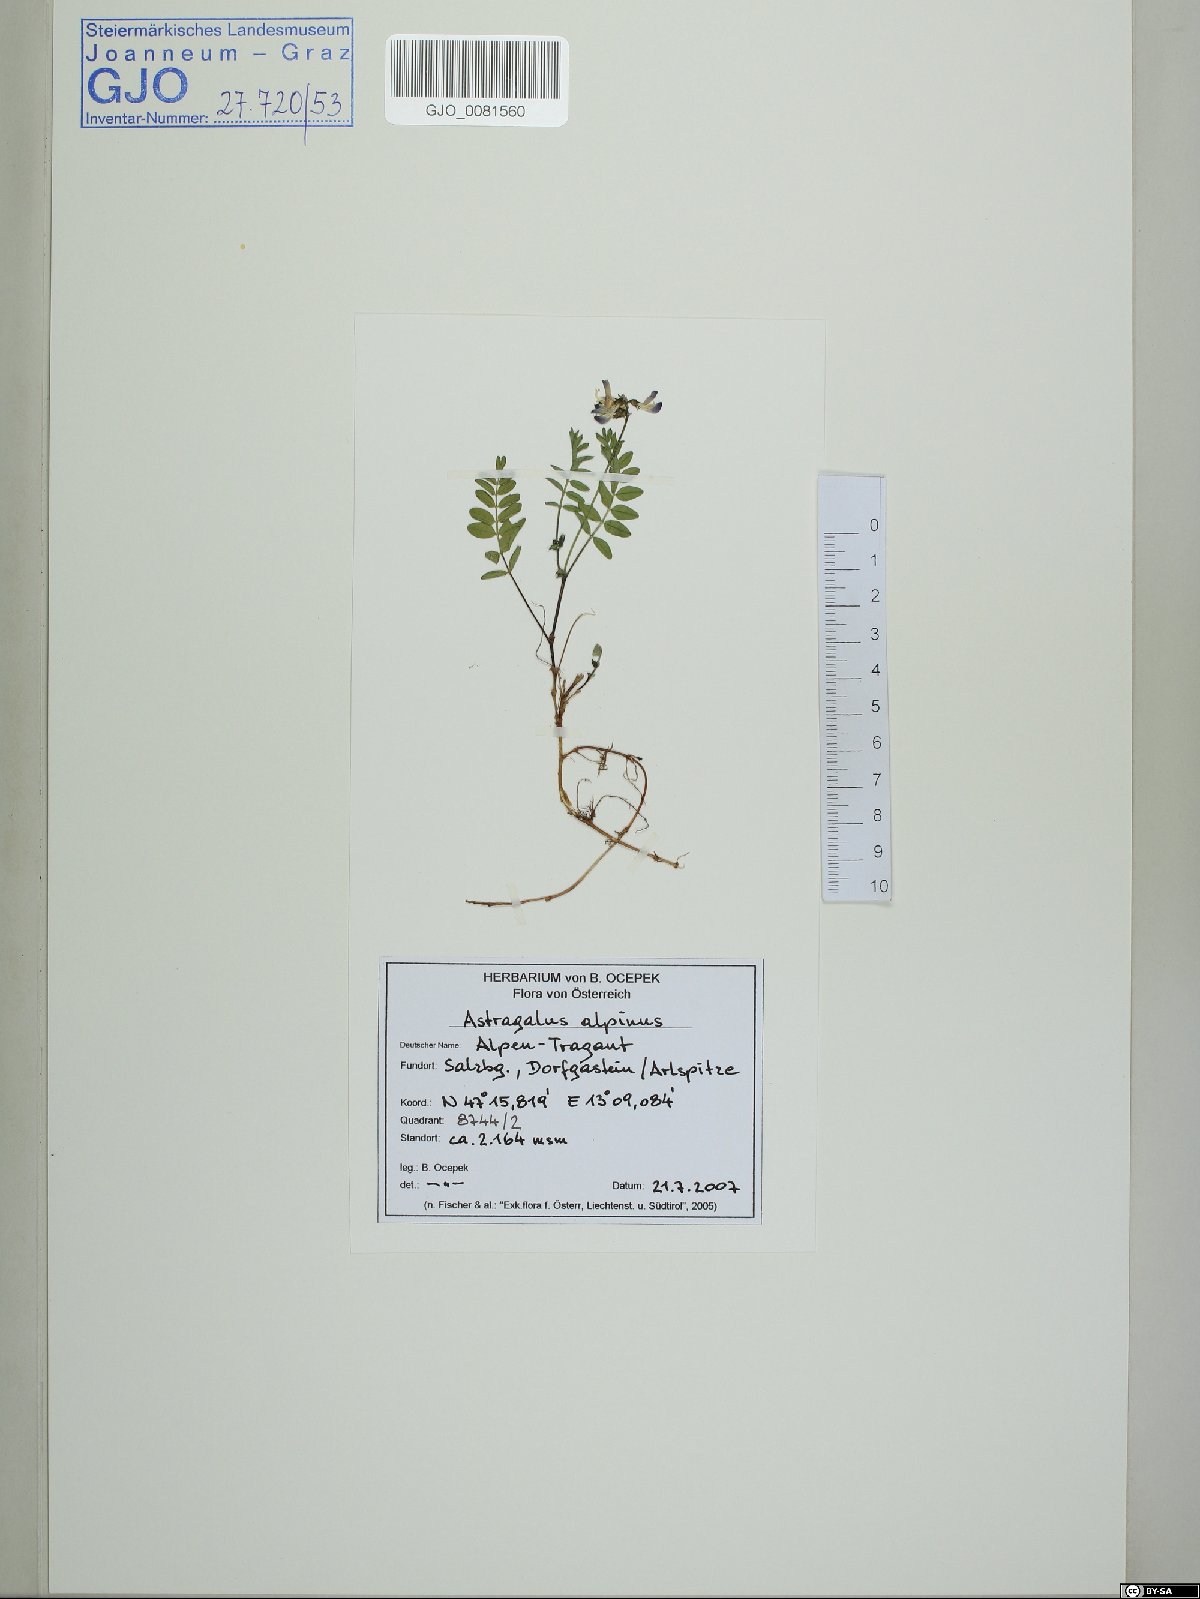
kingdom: Plantae
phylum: Tracheophyta
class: Magnoliopsida
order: Fabales
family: Fabaceae
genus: Astragalus
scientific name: Astragalus alpinus
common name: Alpine milk-vetch
